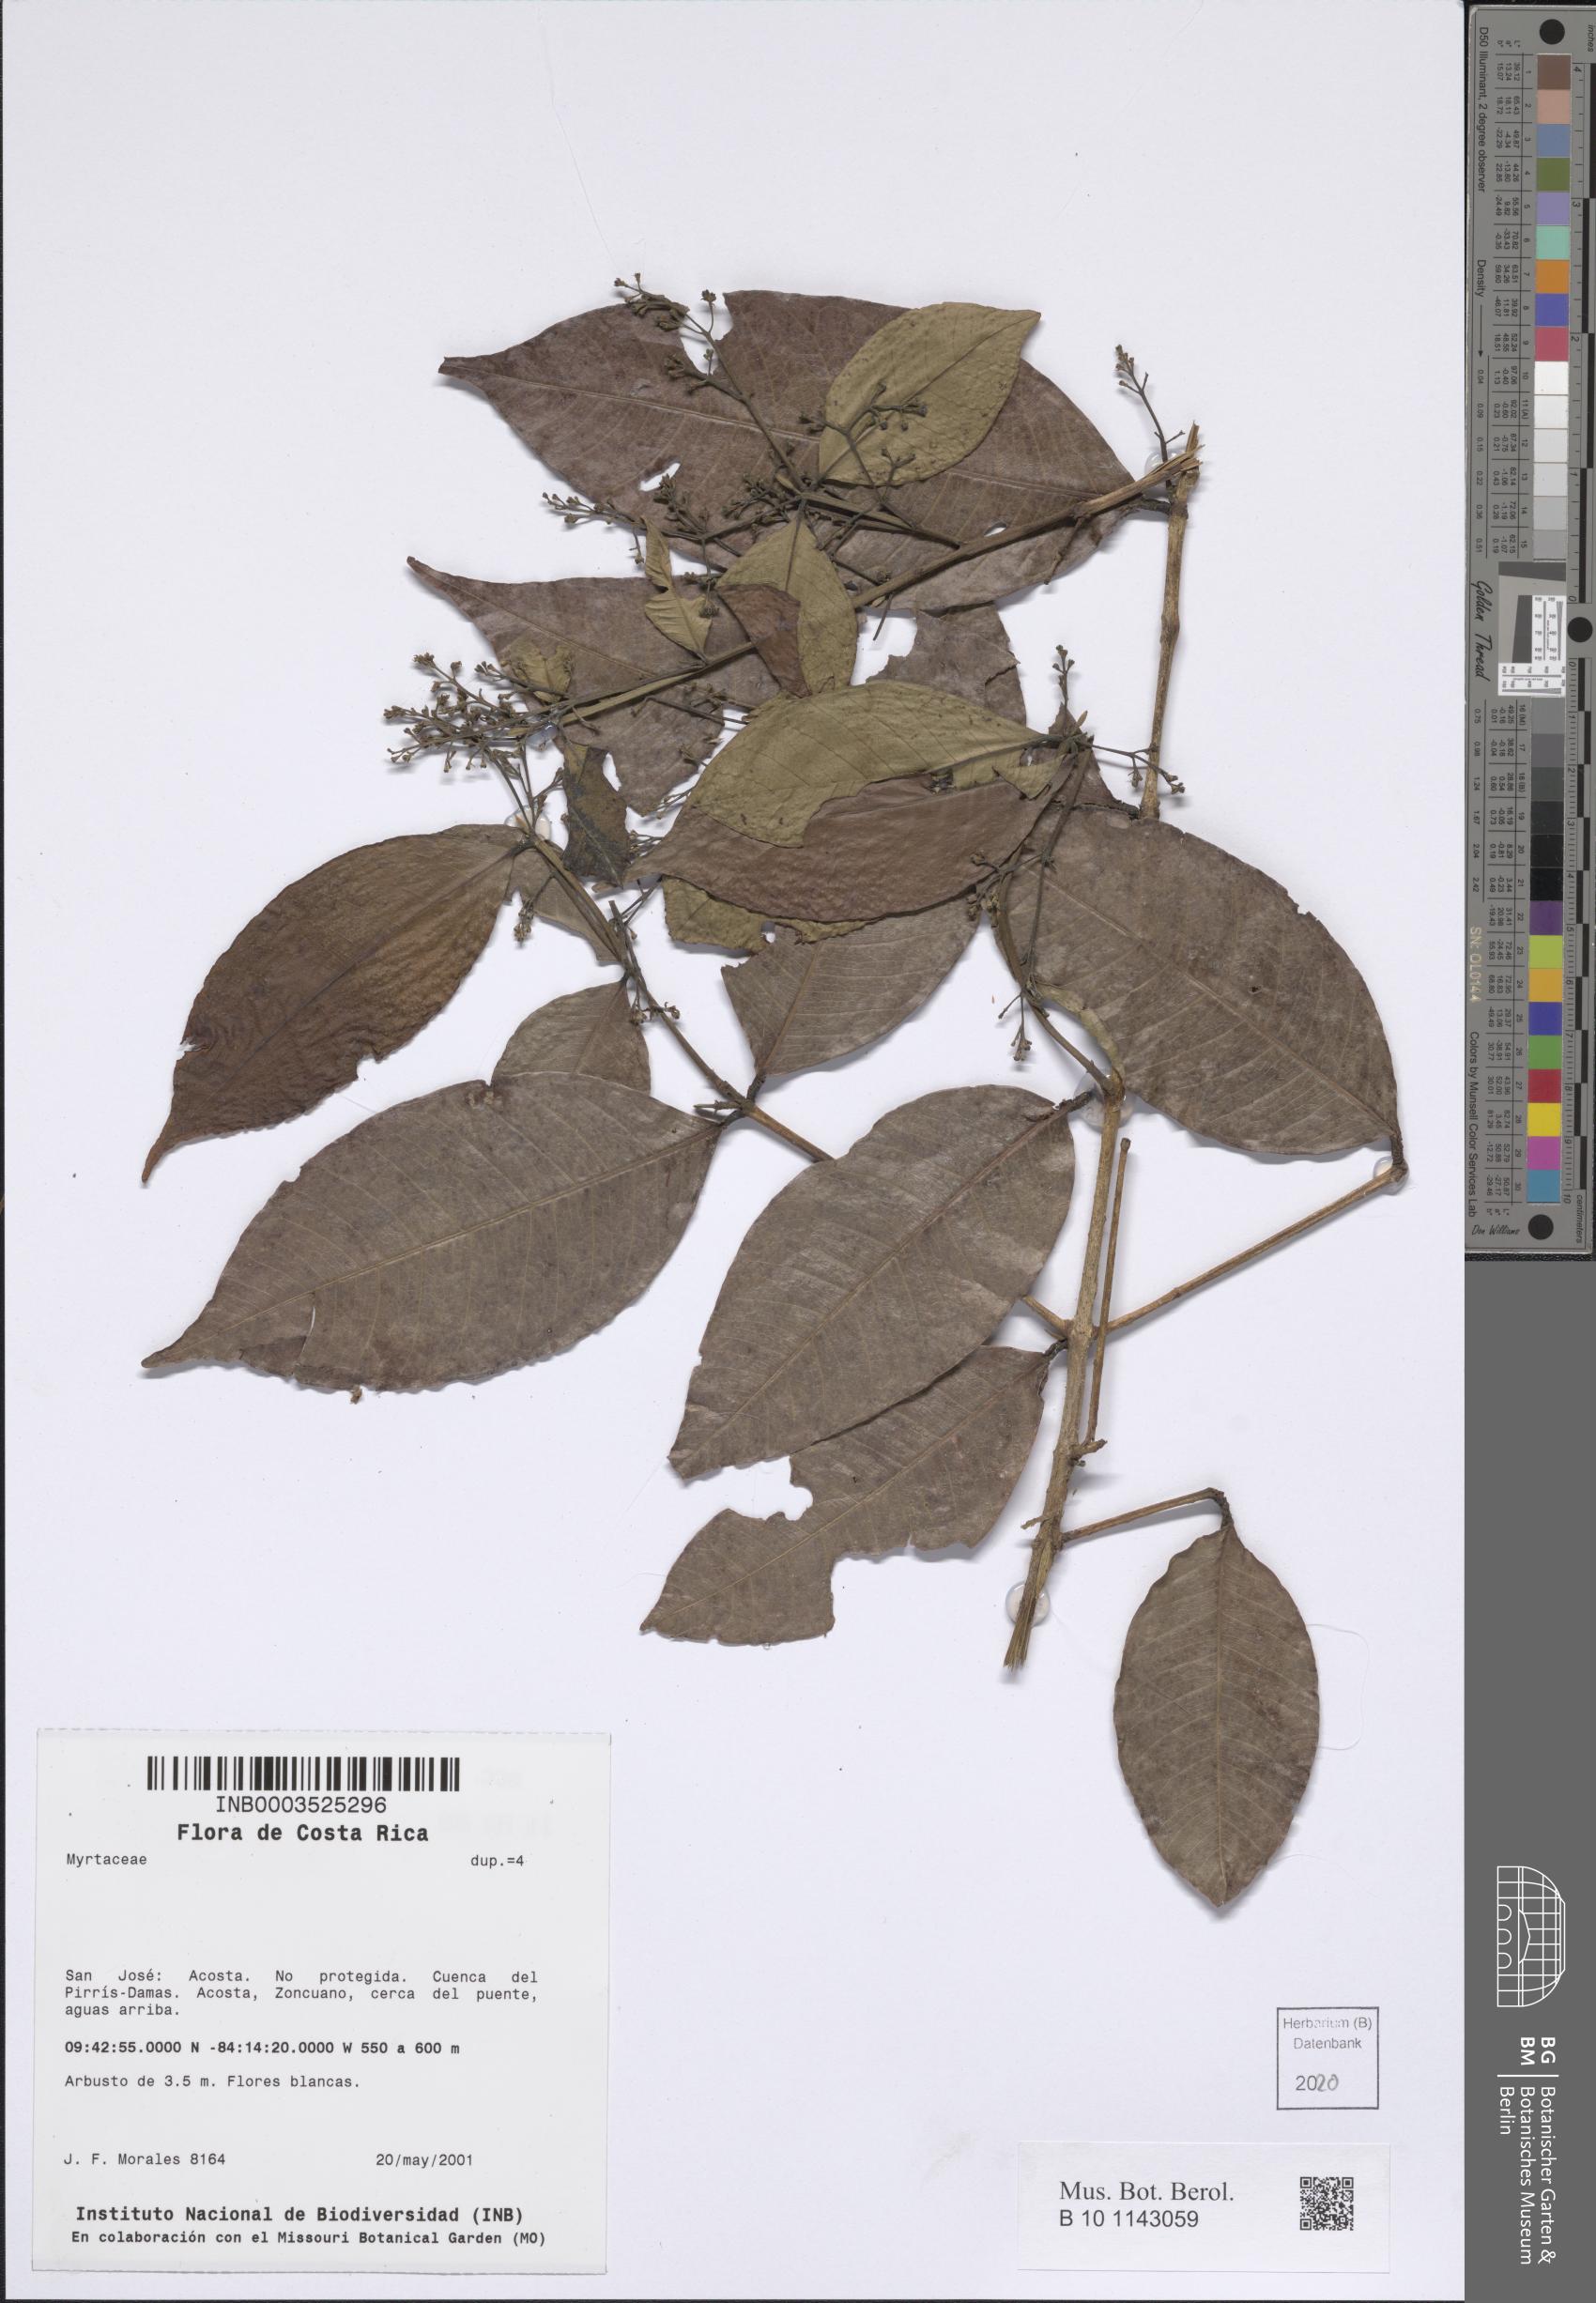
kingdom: Plantae
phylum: Tracheophyta
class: Magnoliopsida
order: Myrtales
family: Myrtaceae
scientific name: Myrtaceae
